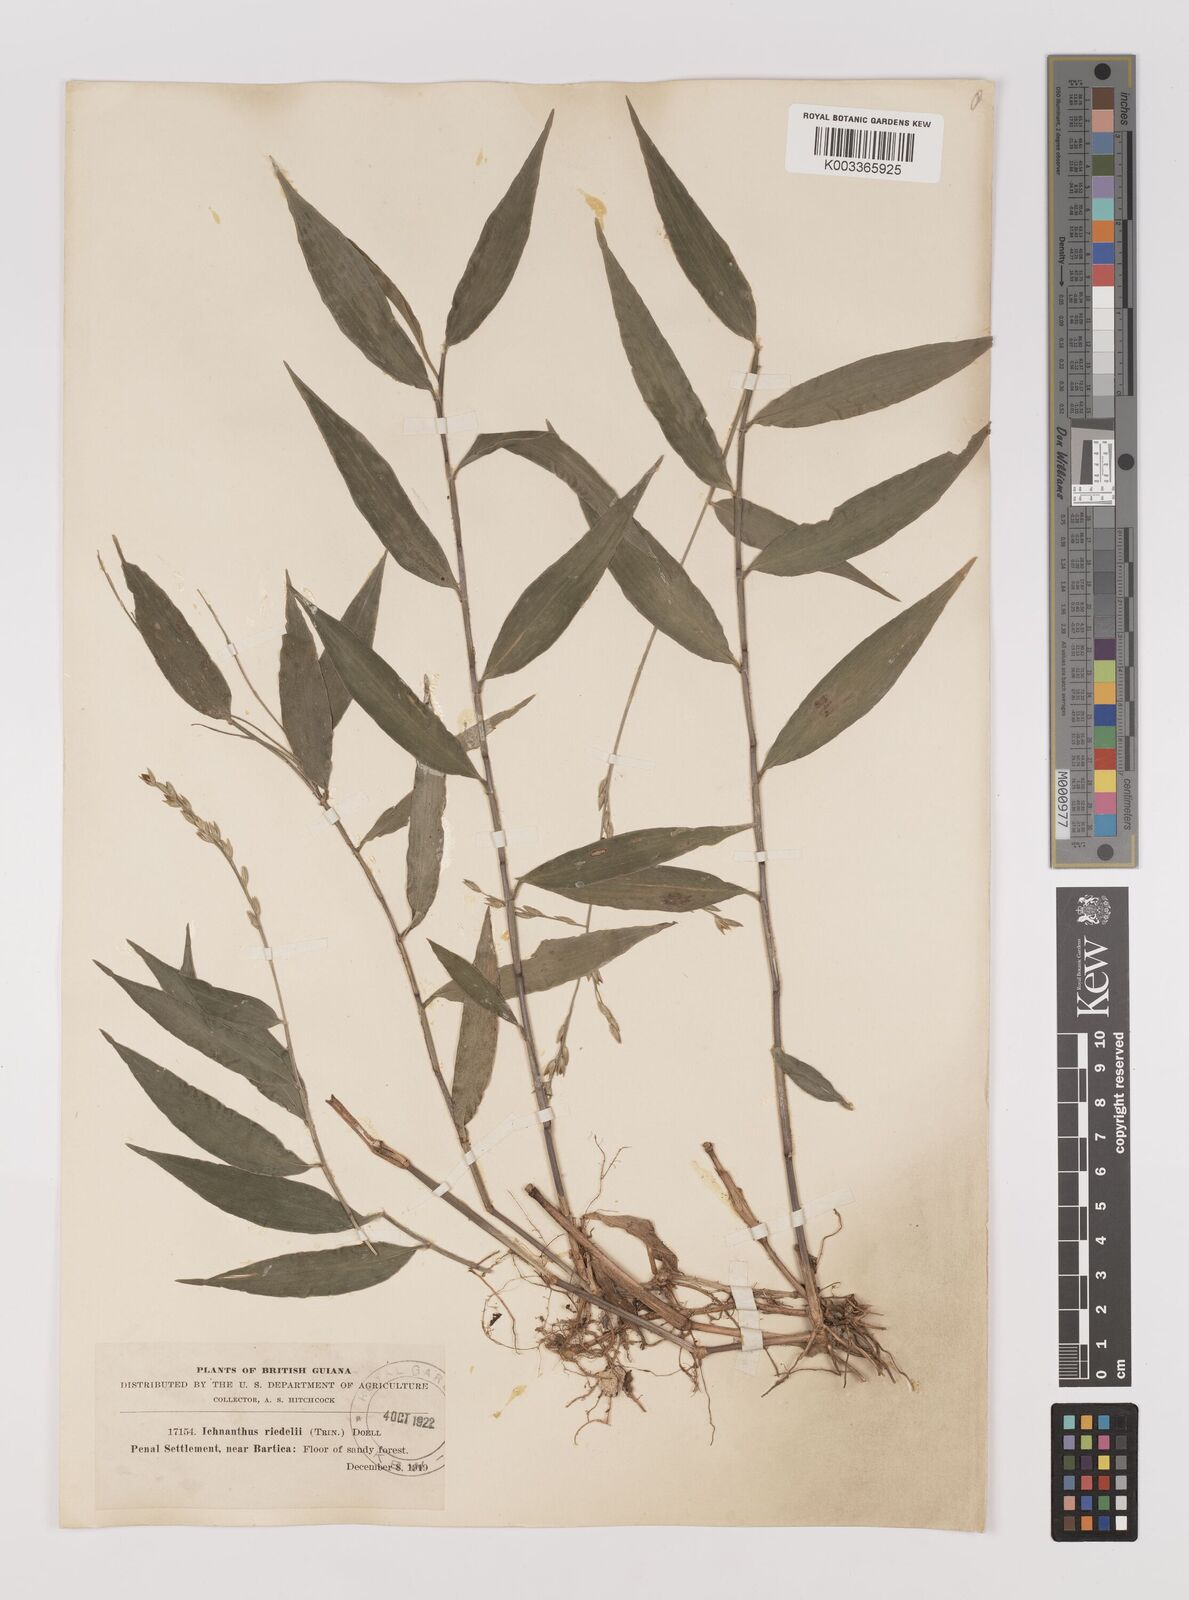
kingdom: Plantae
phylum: Tracheophyta
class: Liliopsida
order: Poales
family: Poaceae
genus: Ichnanthus
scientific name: Ichnanthus nemoralis
